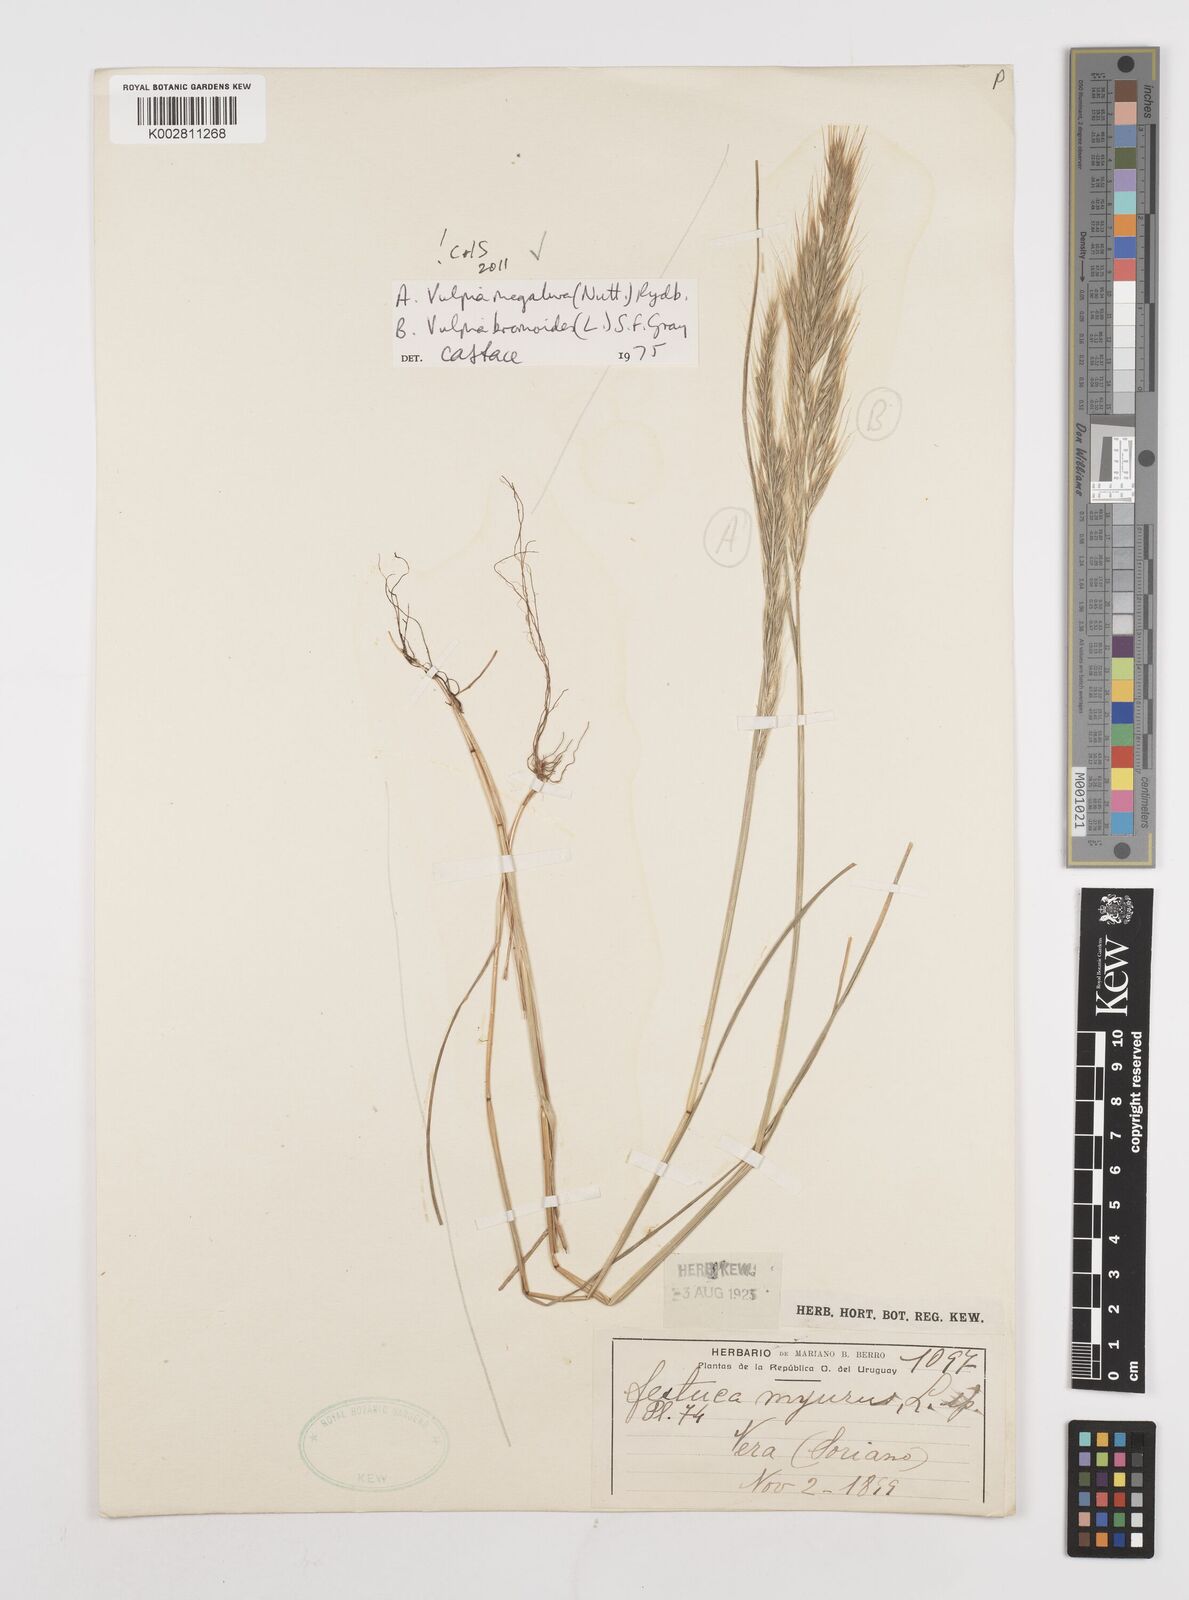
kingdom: Plantae
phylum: Tracheophyta
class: Liliopsida
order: Poales
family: Poaceae
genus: Festuca
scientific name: Festuca bromoides
